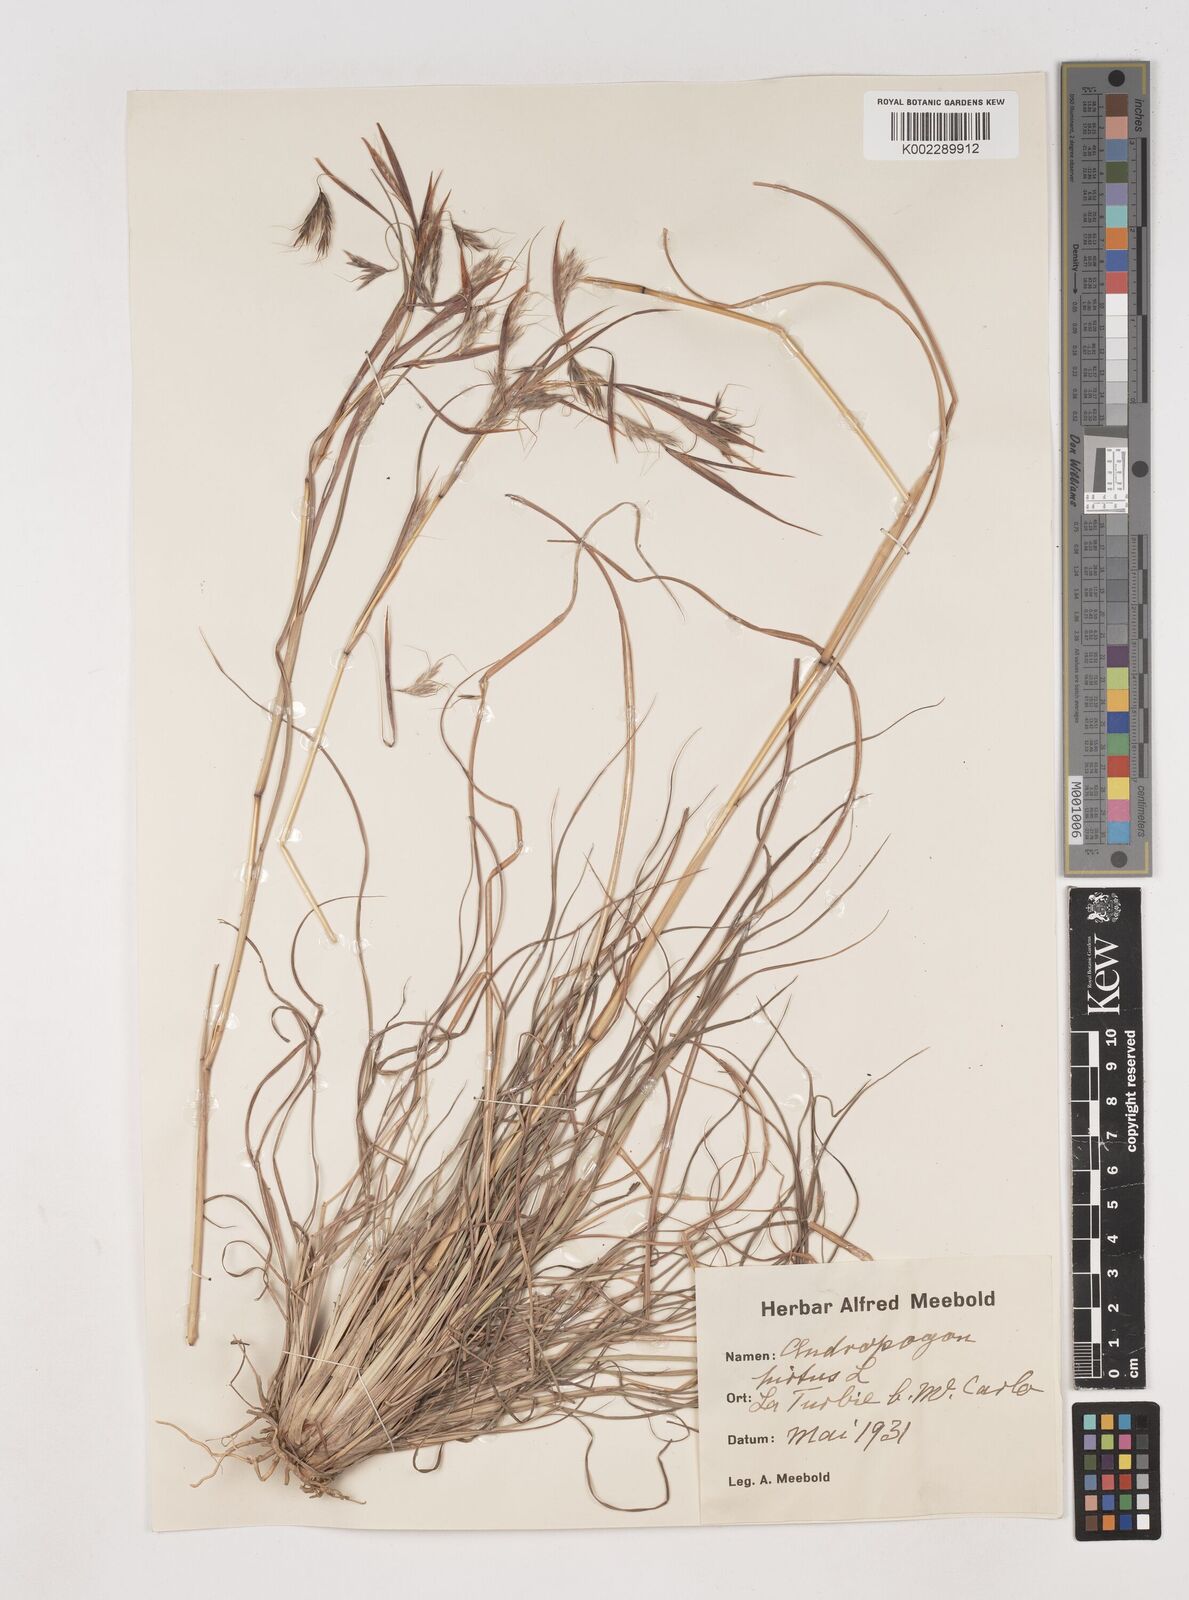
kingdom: Plantae
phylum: Tracheophyta
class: Liliopsida
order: Poales
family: Poaceae
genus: Hyparrhenia
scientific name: Hyparrhenia hirta
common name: Thatching grass
